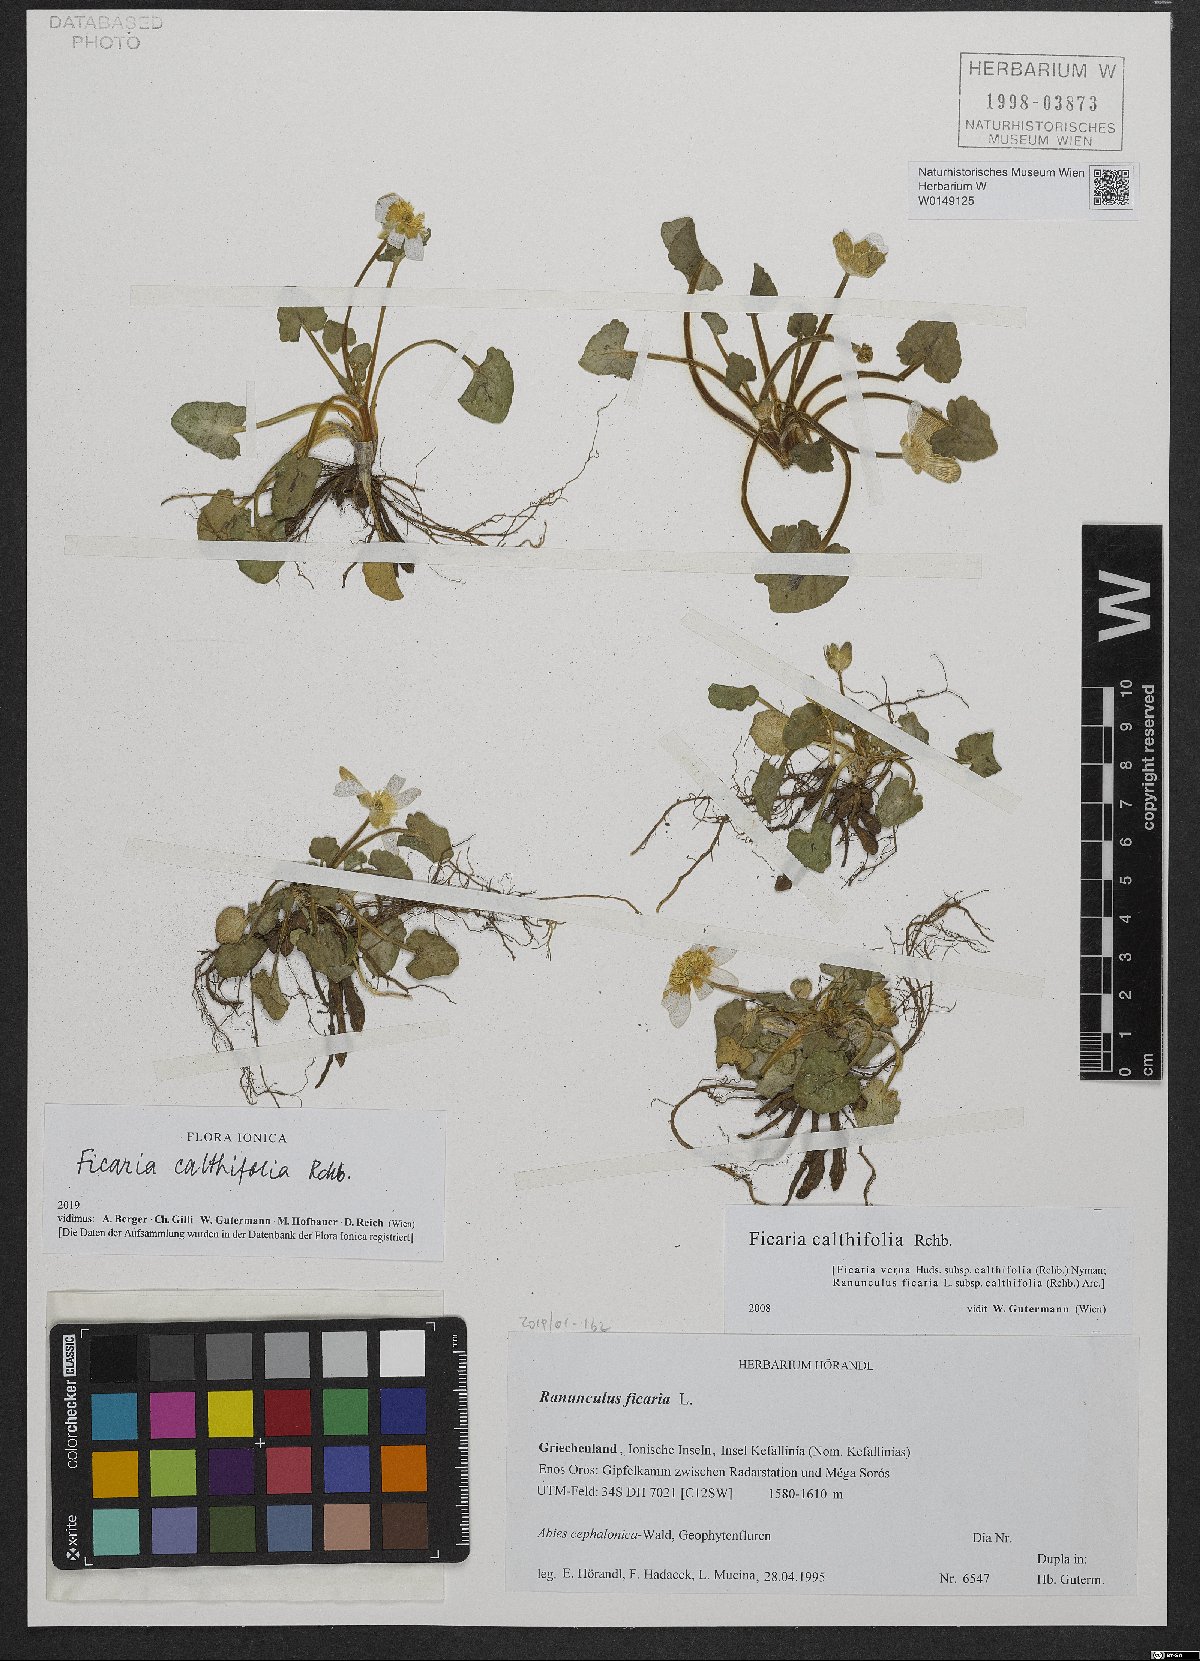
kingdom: Plantae
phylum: Tracheophyta
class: Magnoliopsida
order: Ranunculales
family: Ranunculaceae
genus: Ficaria
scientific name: Ficaria calthifolia
